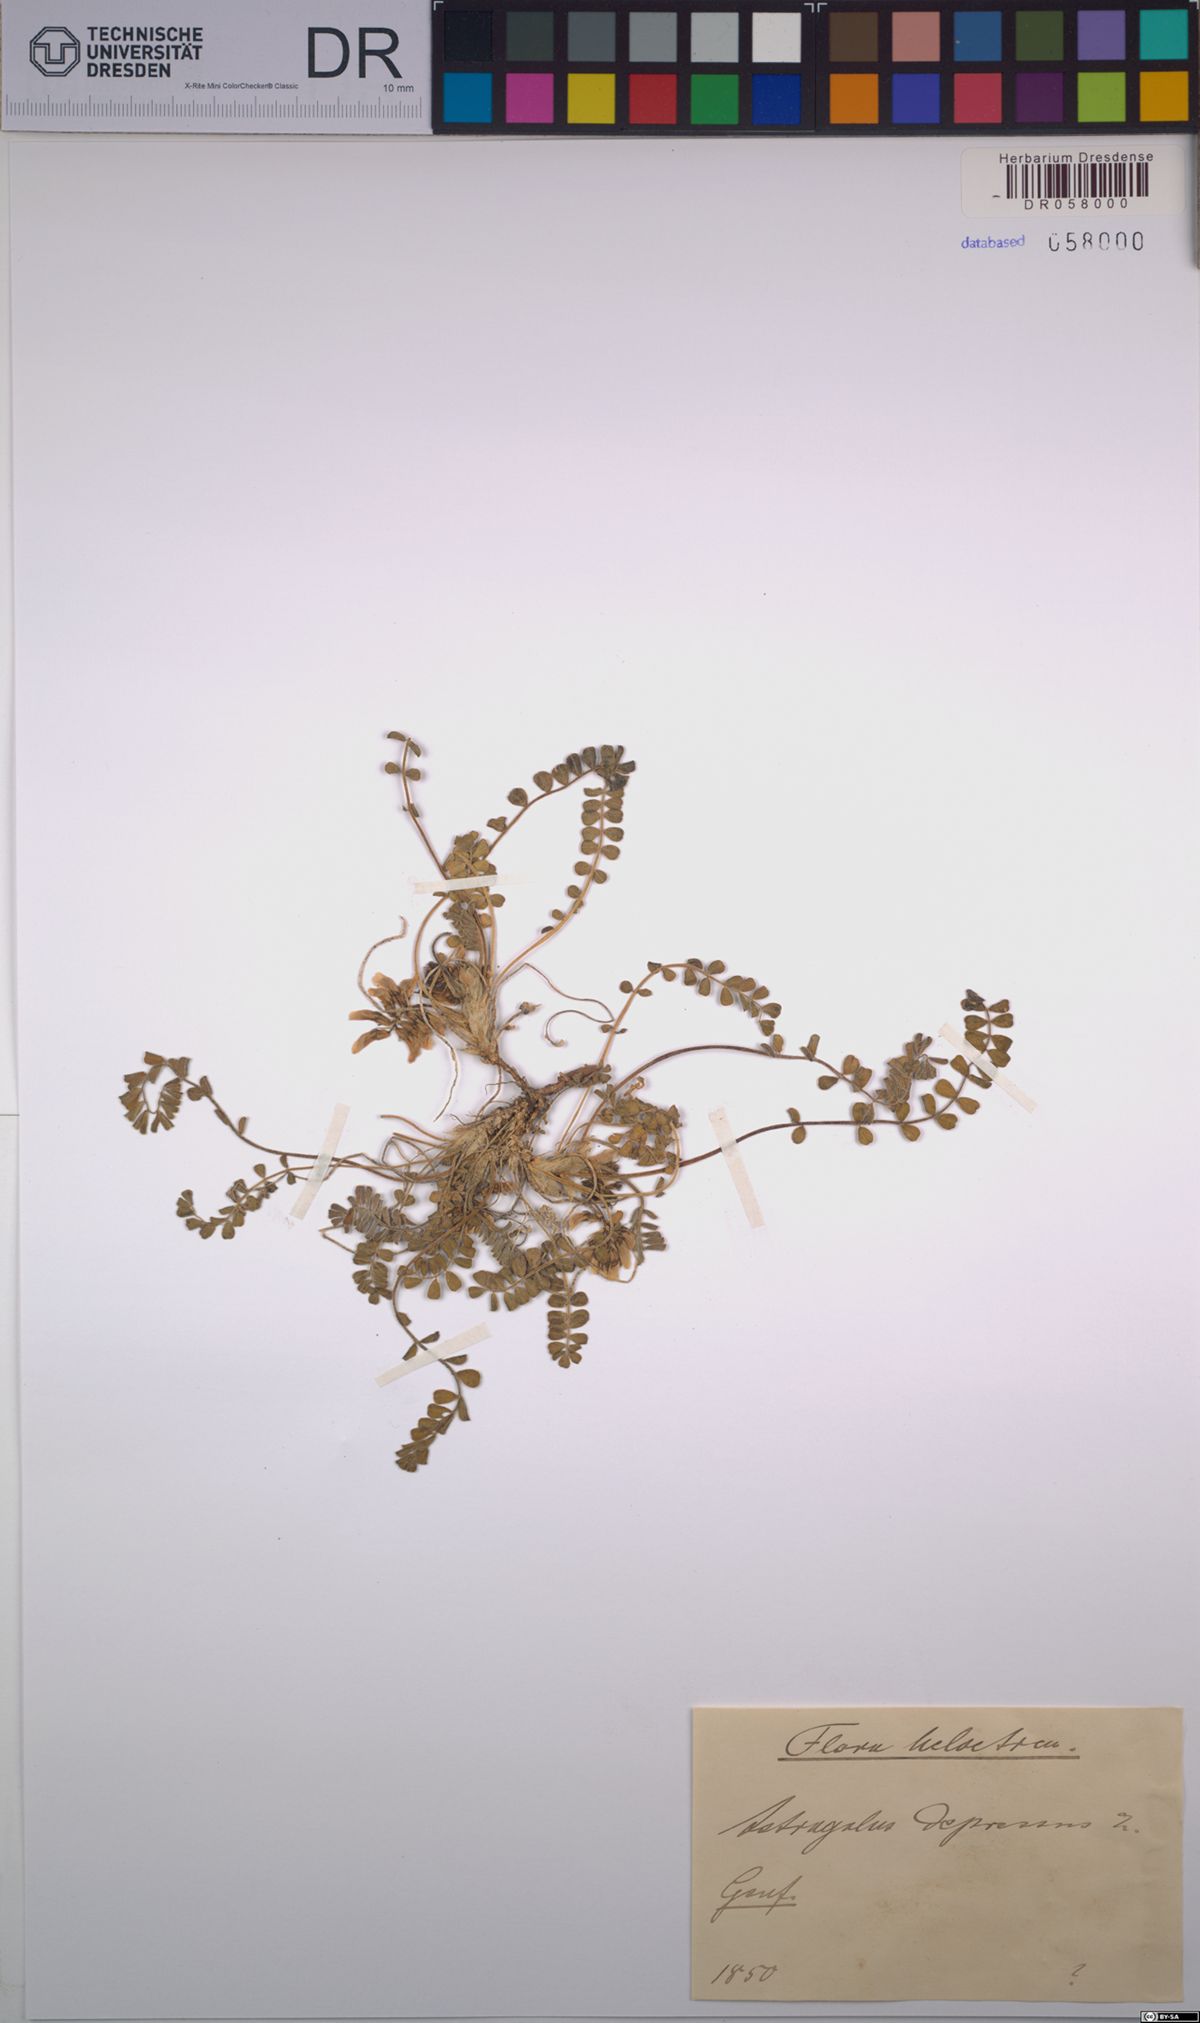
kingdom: Plantae
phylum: Tracheophyta
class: Magnoliopsida
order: Fabales
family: Fabaceae
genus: Astragalus
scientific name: Astragalus depressus
